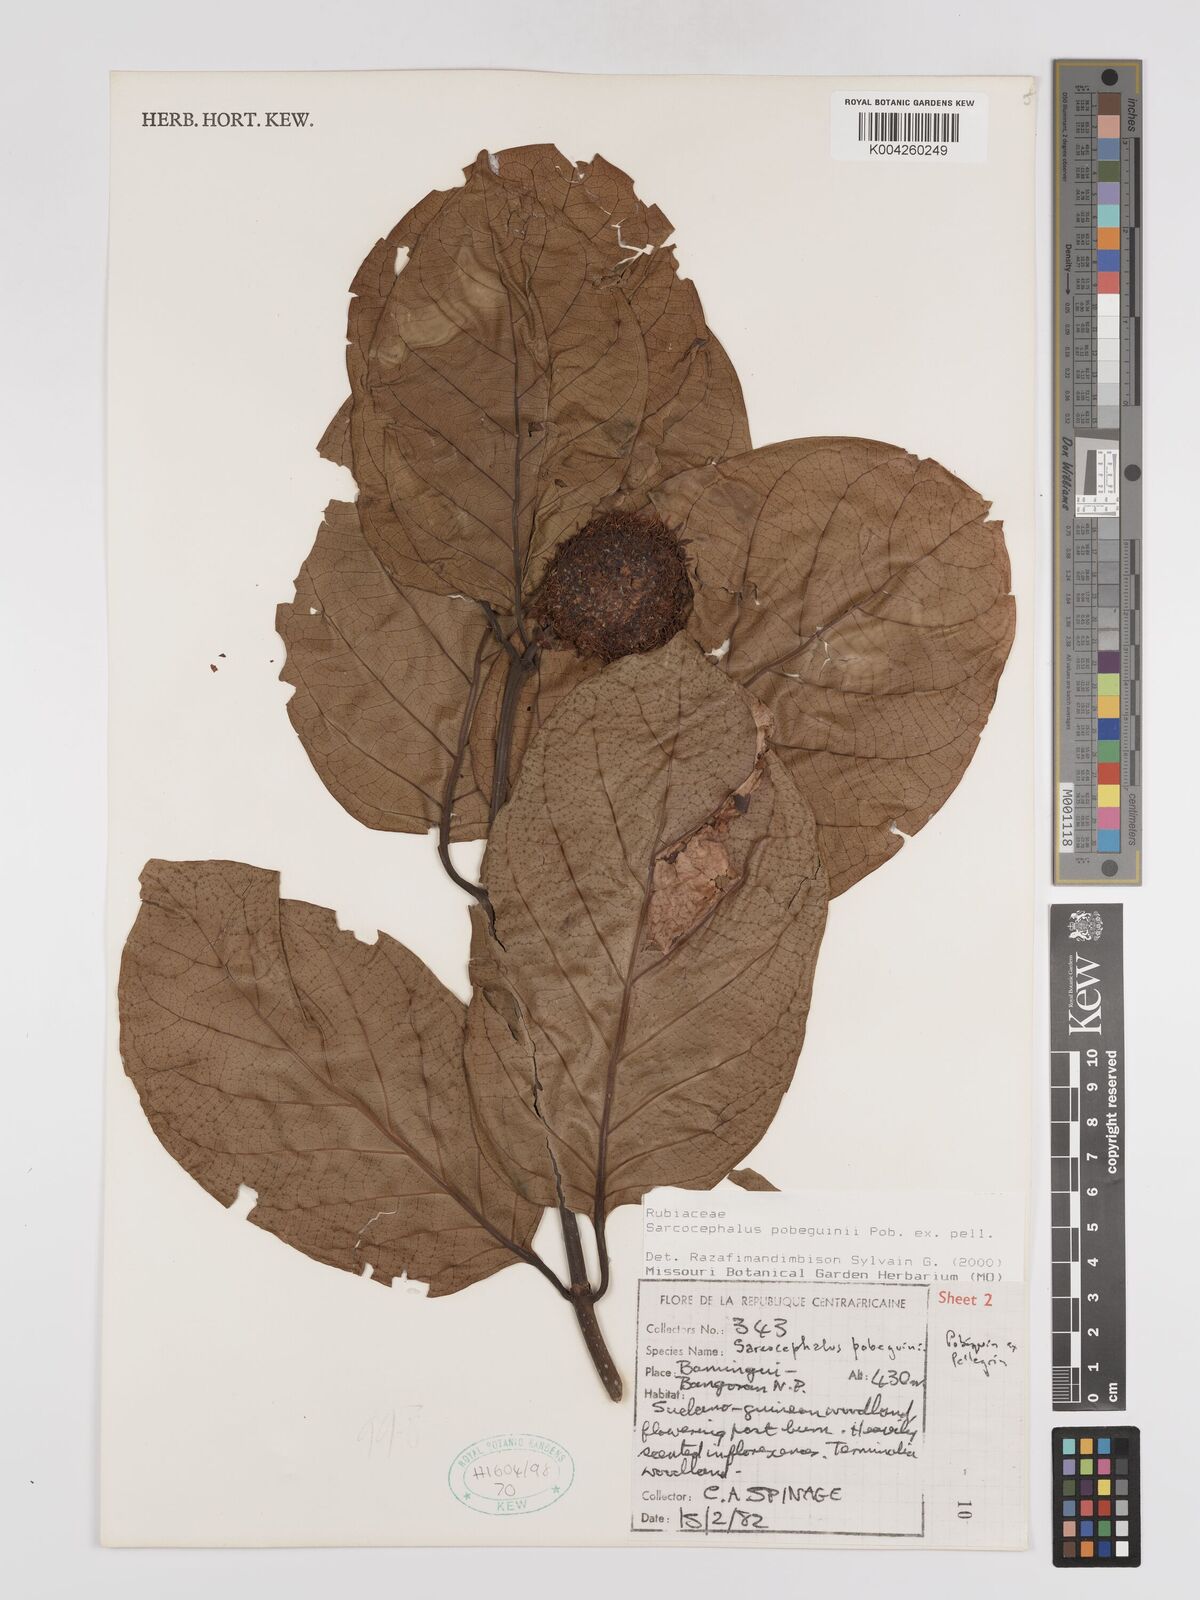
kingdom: Plantae
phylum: Tracheophyta
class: Magnoliopsida
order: Gentianales
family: Rubiaceae
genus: Nauclea
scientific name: Nauclea pobeguinii
